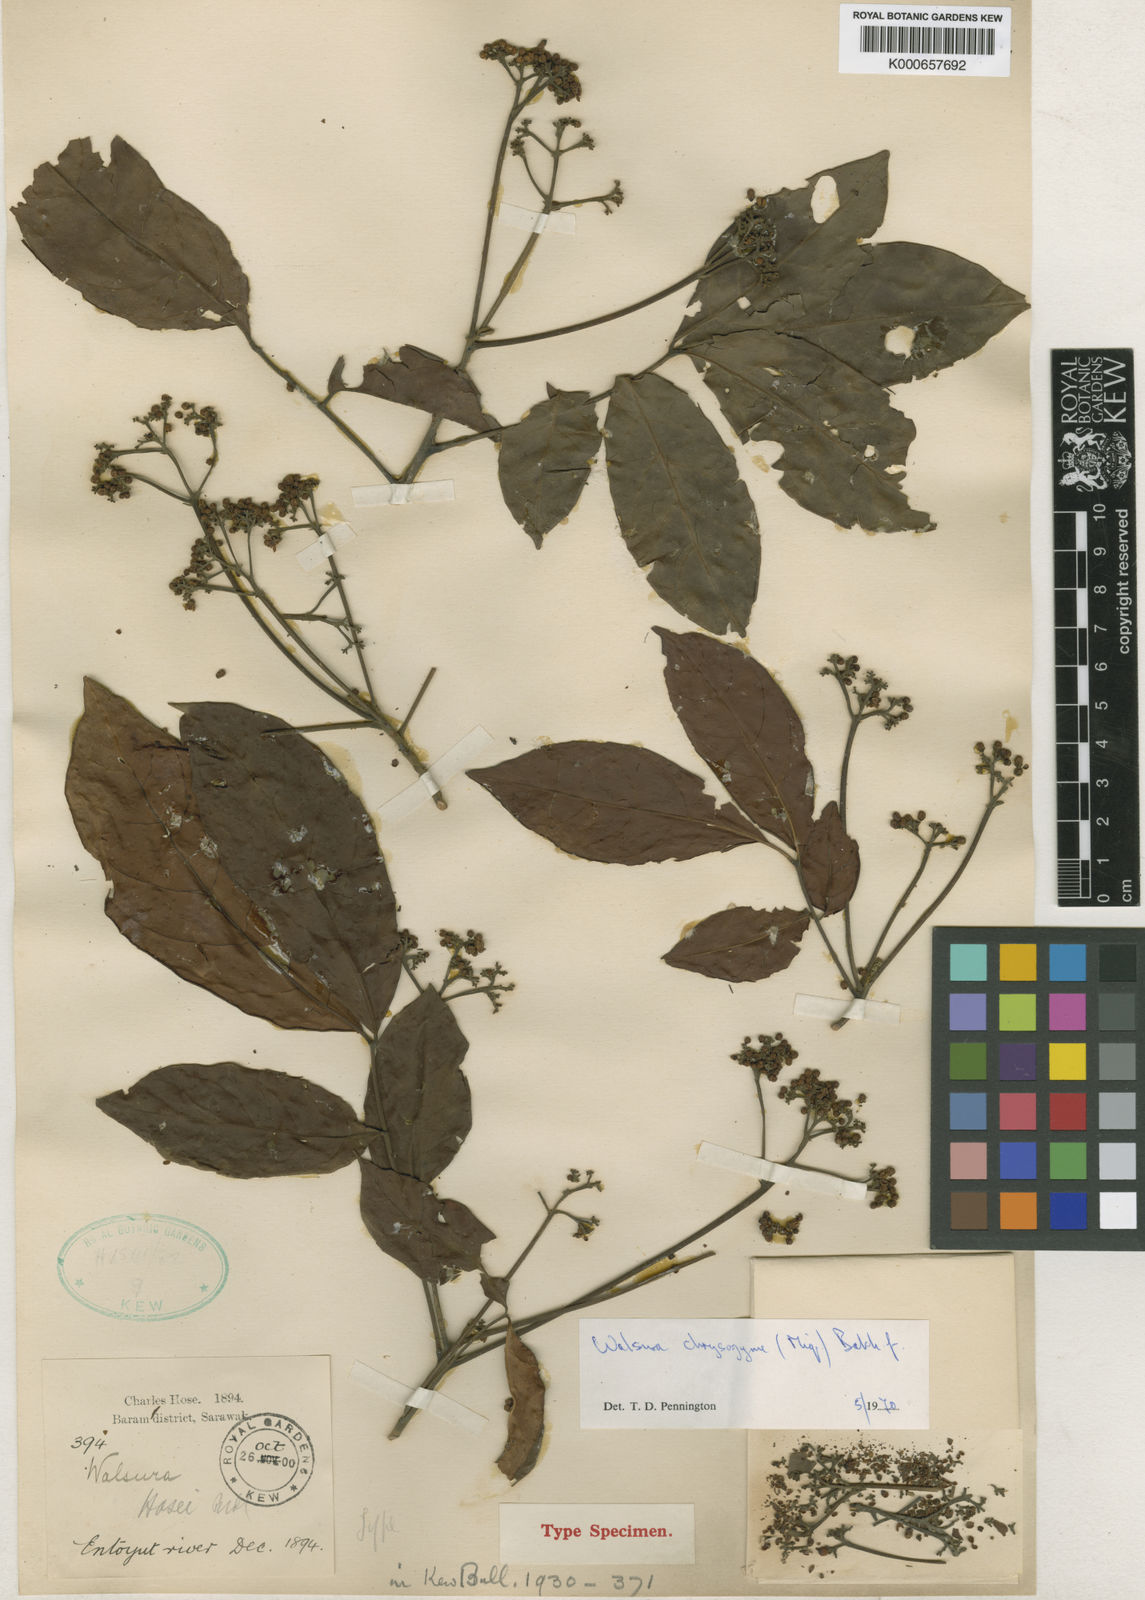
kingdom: Plantae
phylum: Tracheophyta
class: Magnoliopsida
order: Sapindales
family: Meliaceae
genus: Walsura
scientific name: Walsura
